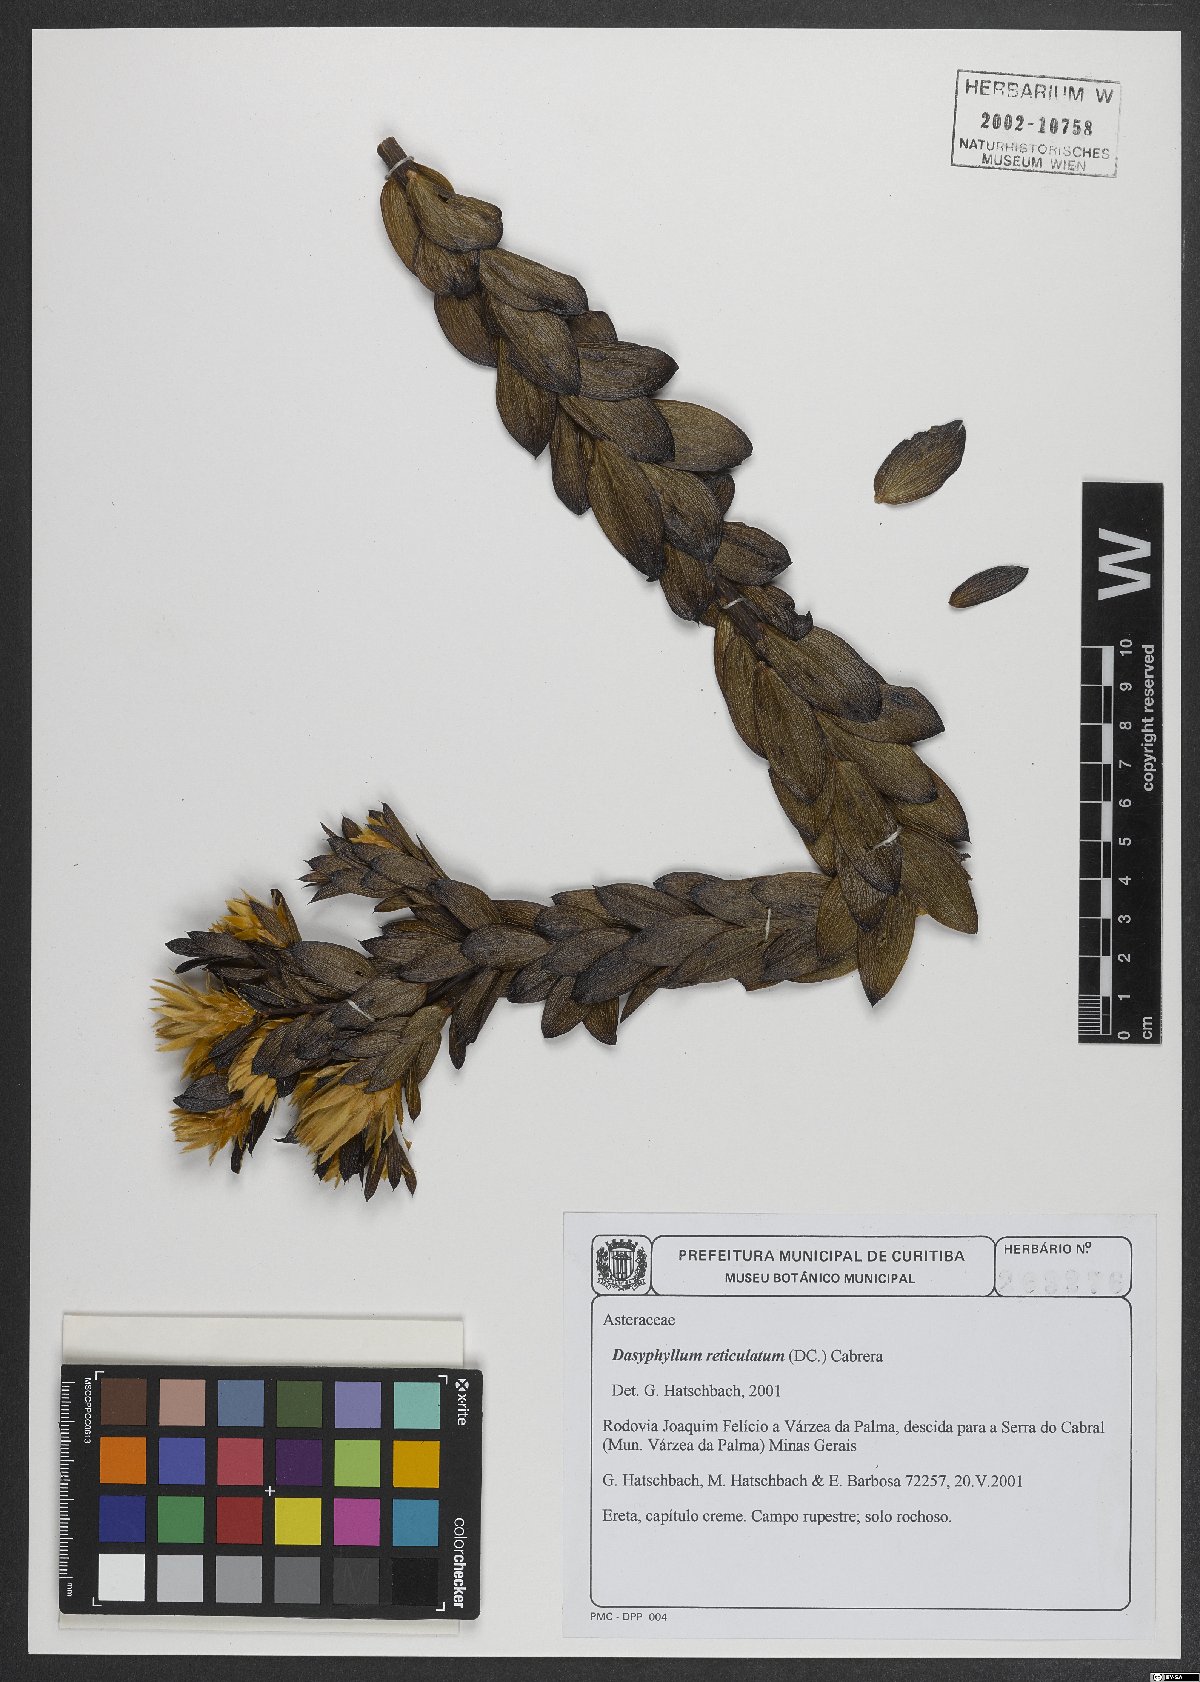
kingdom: Plantae
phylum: Tracheophyta
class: Magnoliopsida
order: Asterales
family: Asteraceae
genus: Dasyphyllum
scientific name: Dasyphyllum reticulatum
